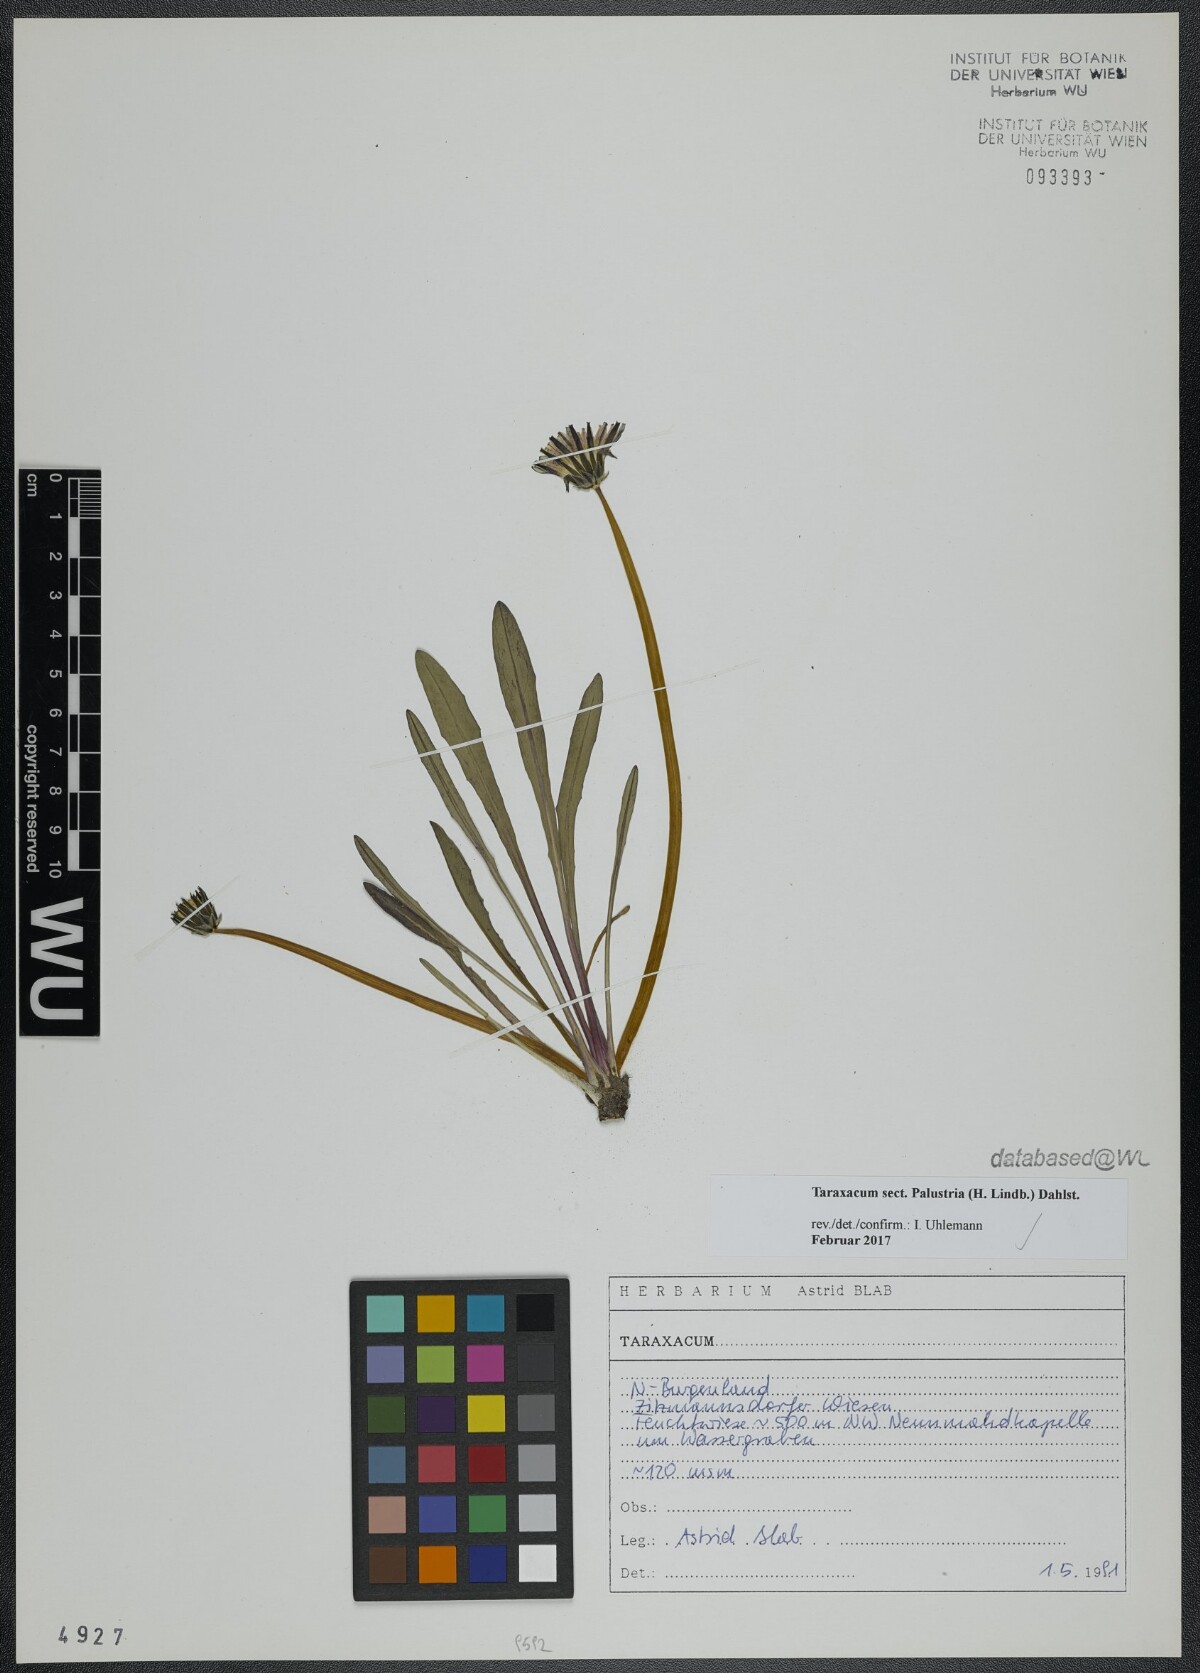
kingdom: Plantae
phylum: Tracheophyta
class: Magnoliopsida
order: Asterales
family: Asteraceae
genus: Taraxacum
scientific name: Taraxacum
